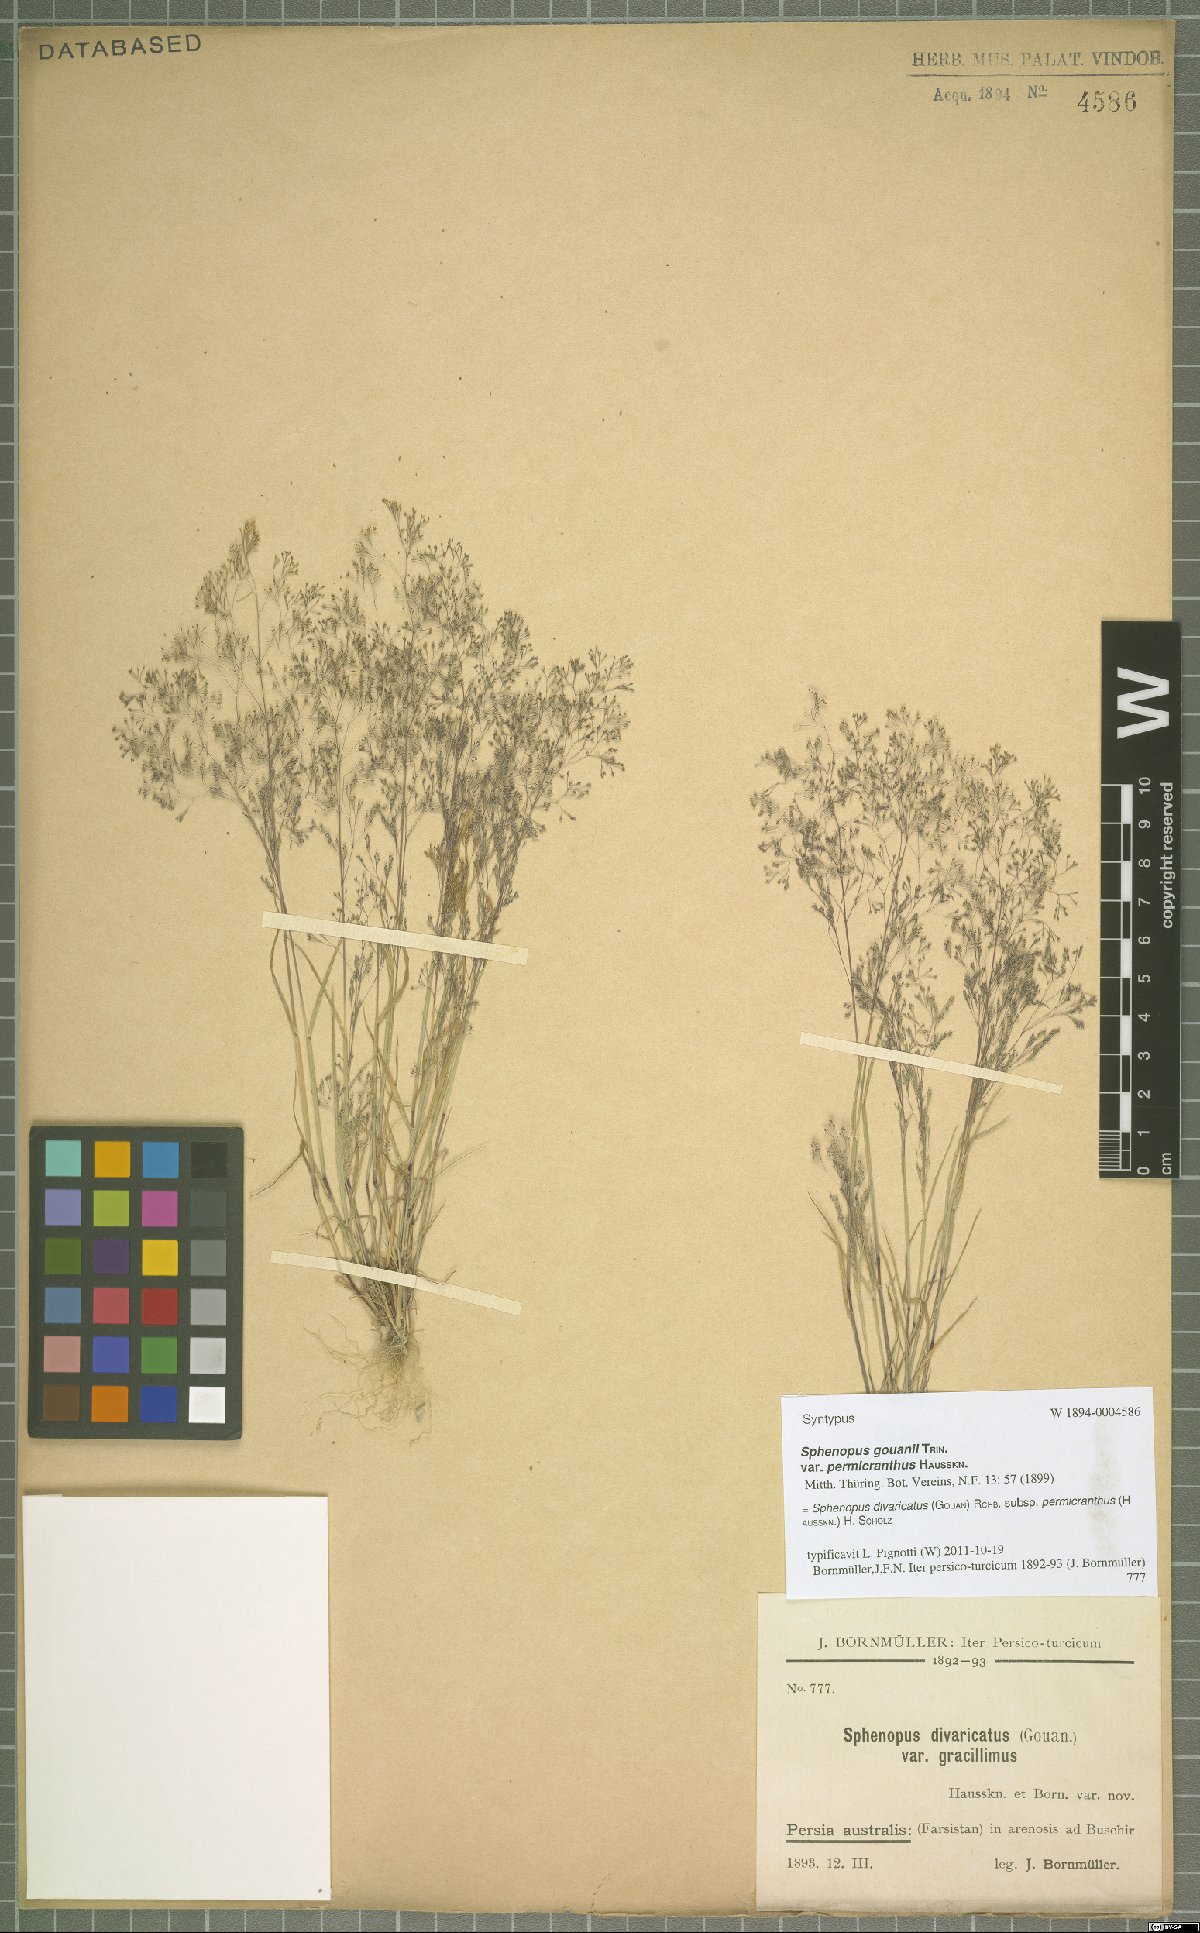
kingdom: Plantae
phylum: Tracheophyta
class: Liliopsida
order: Poales
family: Poaceae
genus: Sphenopus
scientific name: Sphenopus divaricatus
